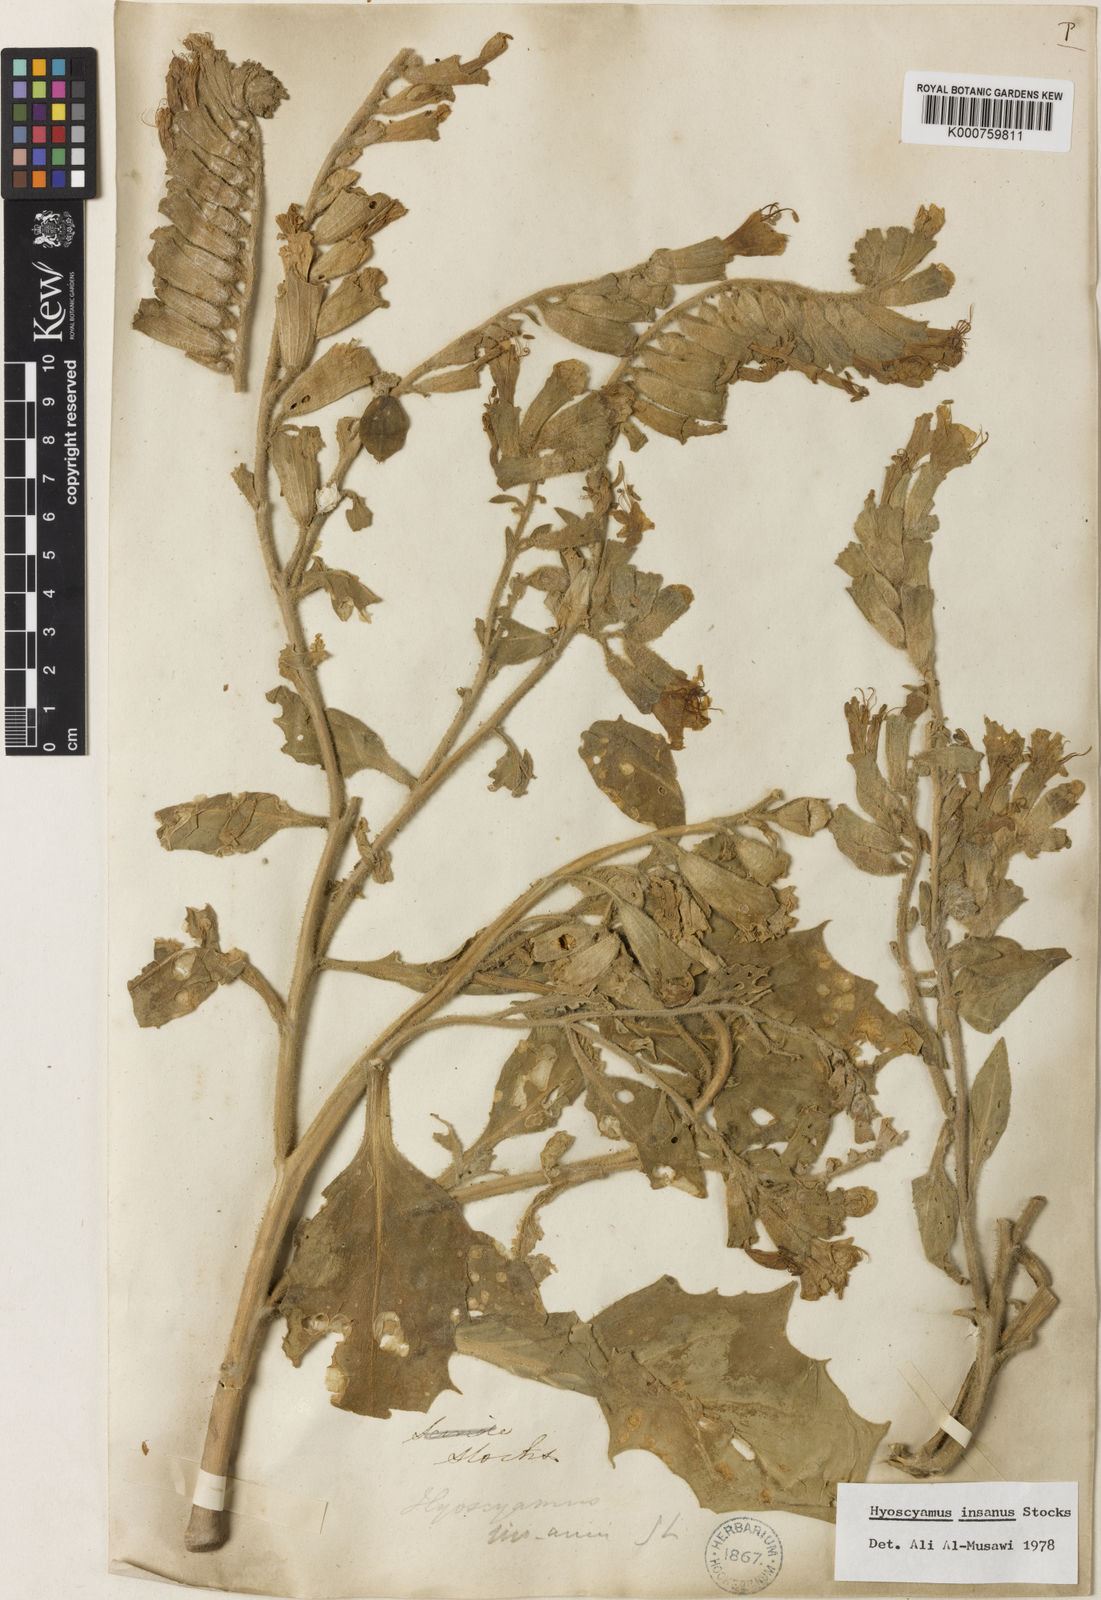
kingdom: Plantae
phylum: Tracheophyta
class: Magnoliopsida
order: Solanales
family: Solanaceae
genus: Hyoscyamus
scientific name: Hyoscyamus insanus
